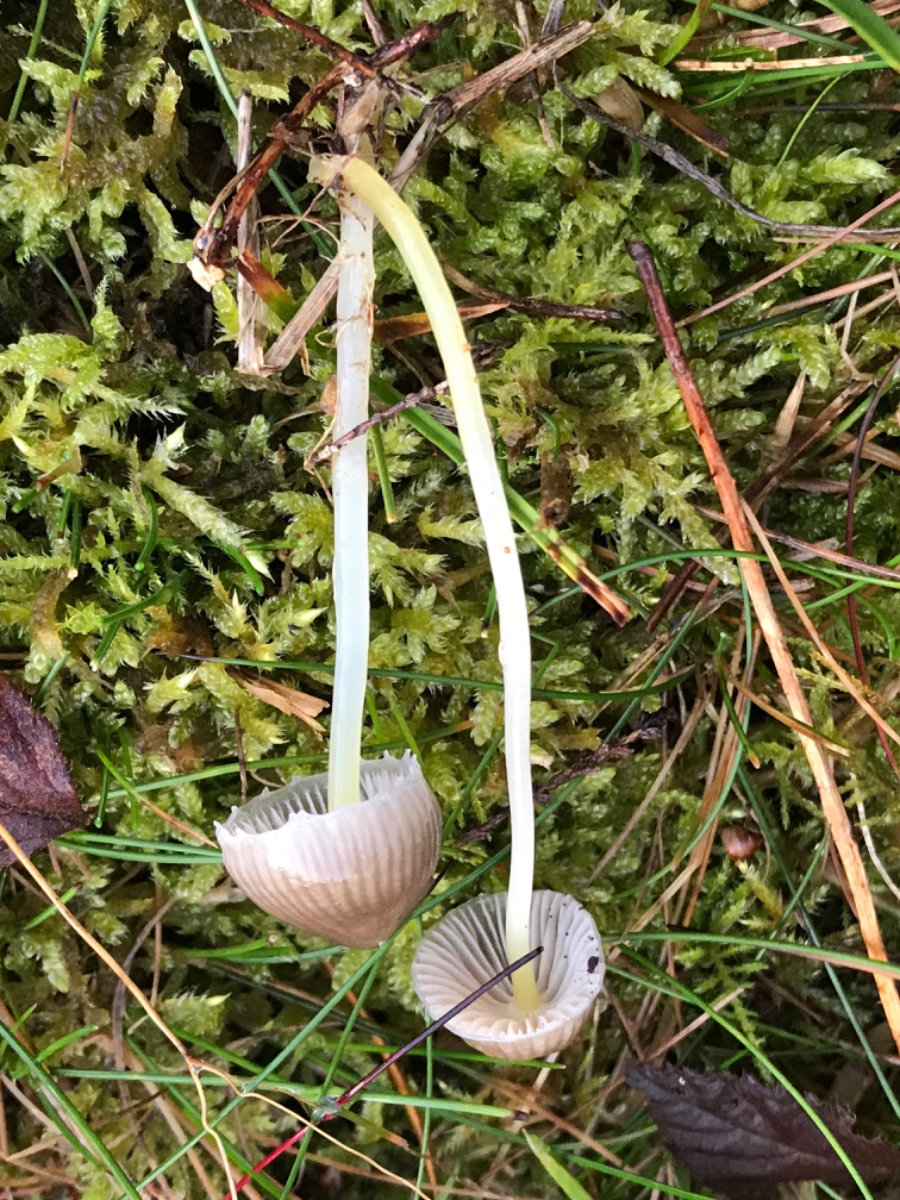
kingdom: Fungi
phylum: Basidiomycota
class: Agaricomycetes
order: Agaricales
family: Mycenaceae
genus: Mycena
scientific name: Mycena epipterygia
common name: gulstokket huesvamp
